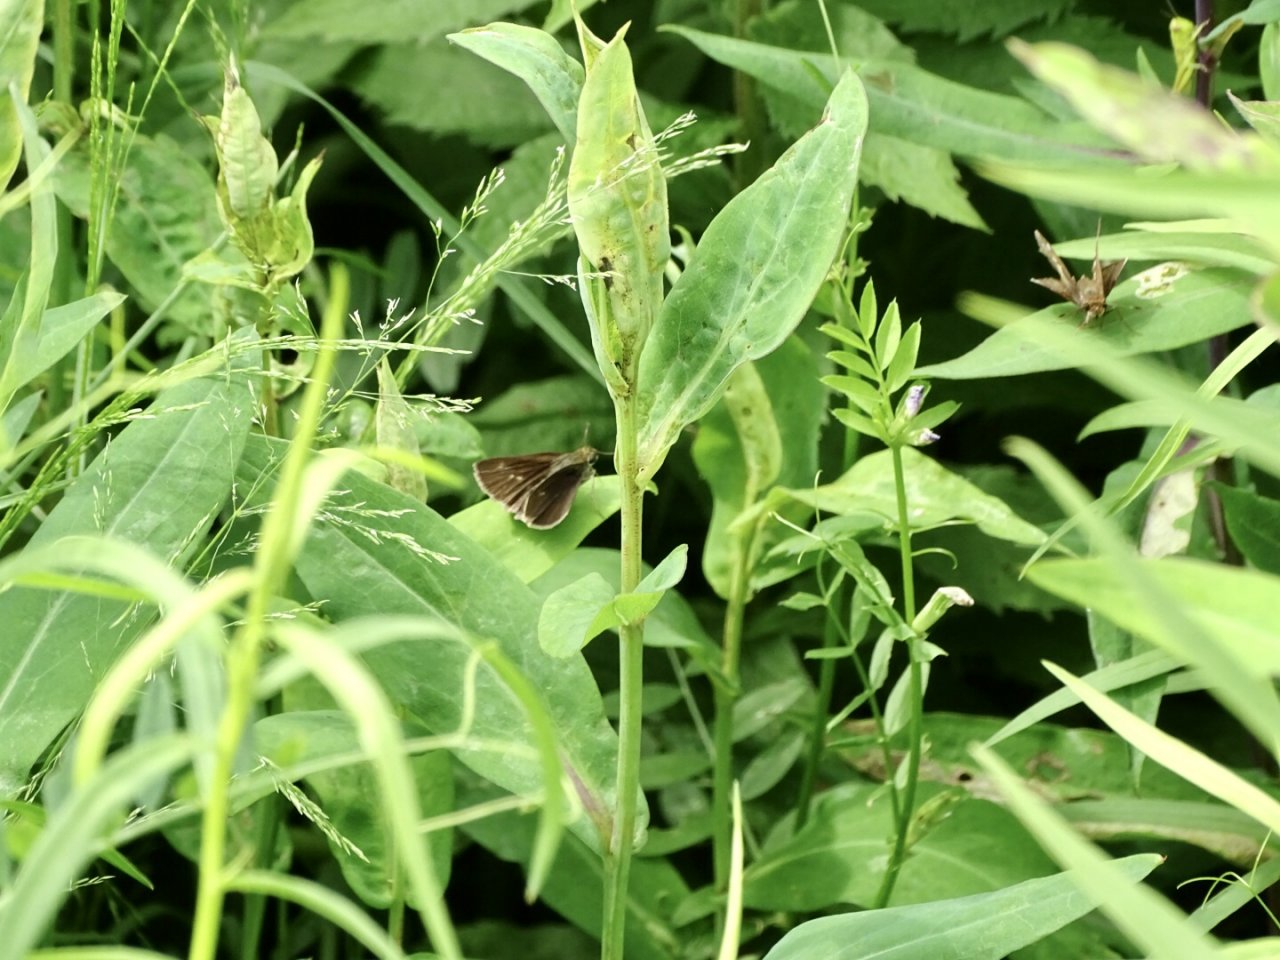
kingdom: Animalia
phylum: Arthropoda
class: Insecta
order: Lepidoptera
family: Hesperiidae
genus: Euphyes
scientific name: Euphyes vestris
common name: Dun Skipper
